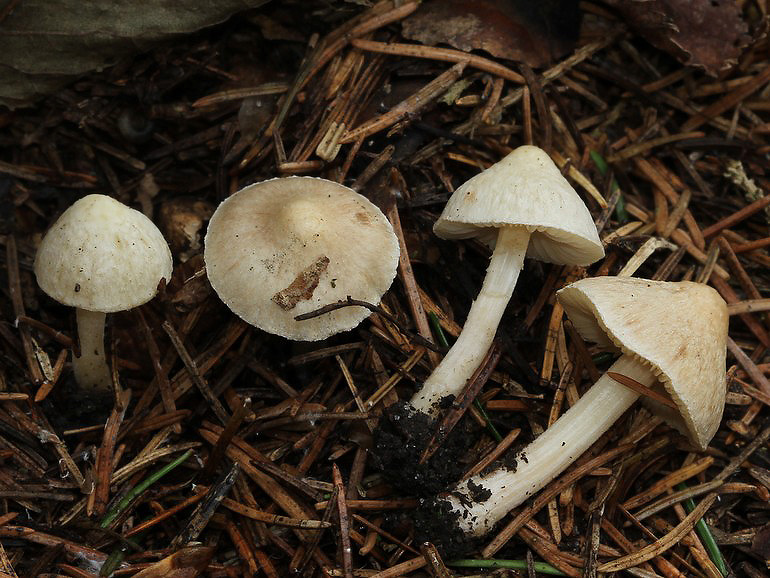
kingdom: Fungi
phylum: Basidiomycota
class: Agaricomycetes
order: Agaricales
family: Inocybaceae
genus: Inocybe
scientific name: Inocybe sindonia
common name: bleg trævlhat
